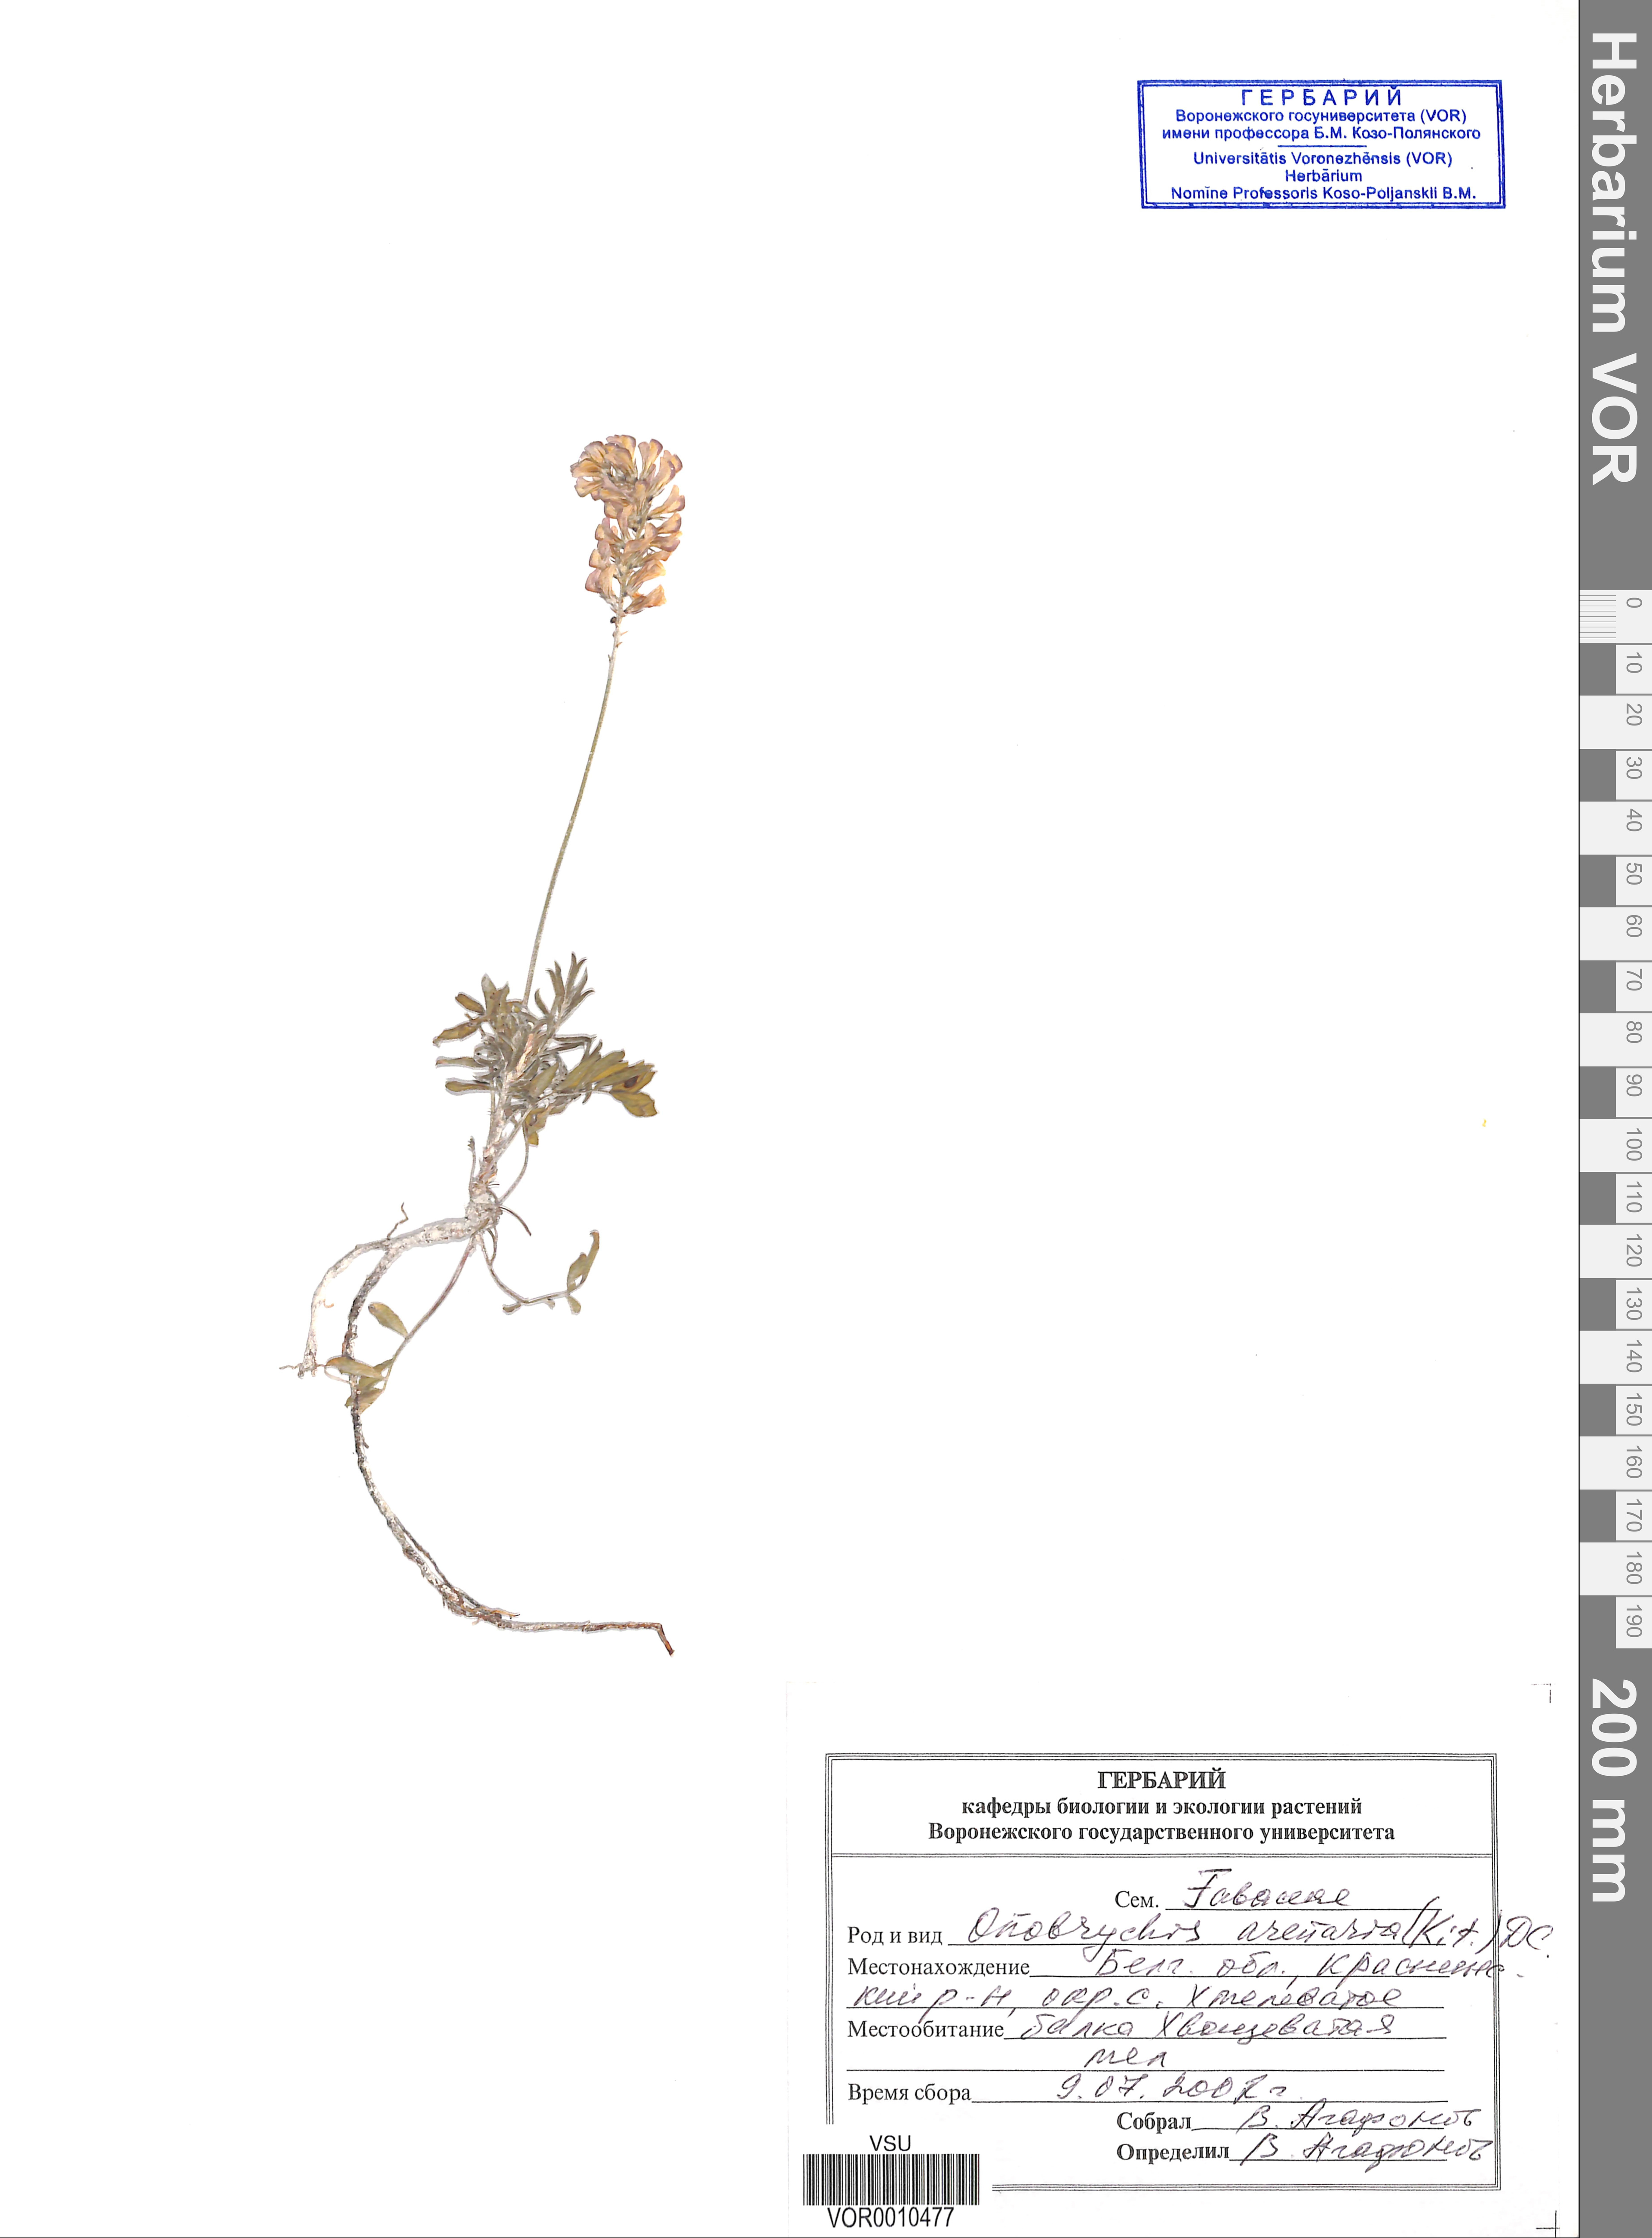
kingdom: Plantae
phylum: Tracheophyta
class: Magnoliopsida
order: Fabales
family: Fabaceae
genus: Onobrychis
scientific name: Onobrychis arenaria
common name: Sand esparcet
